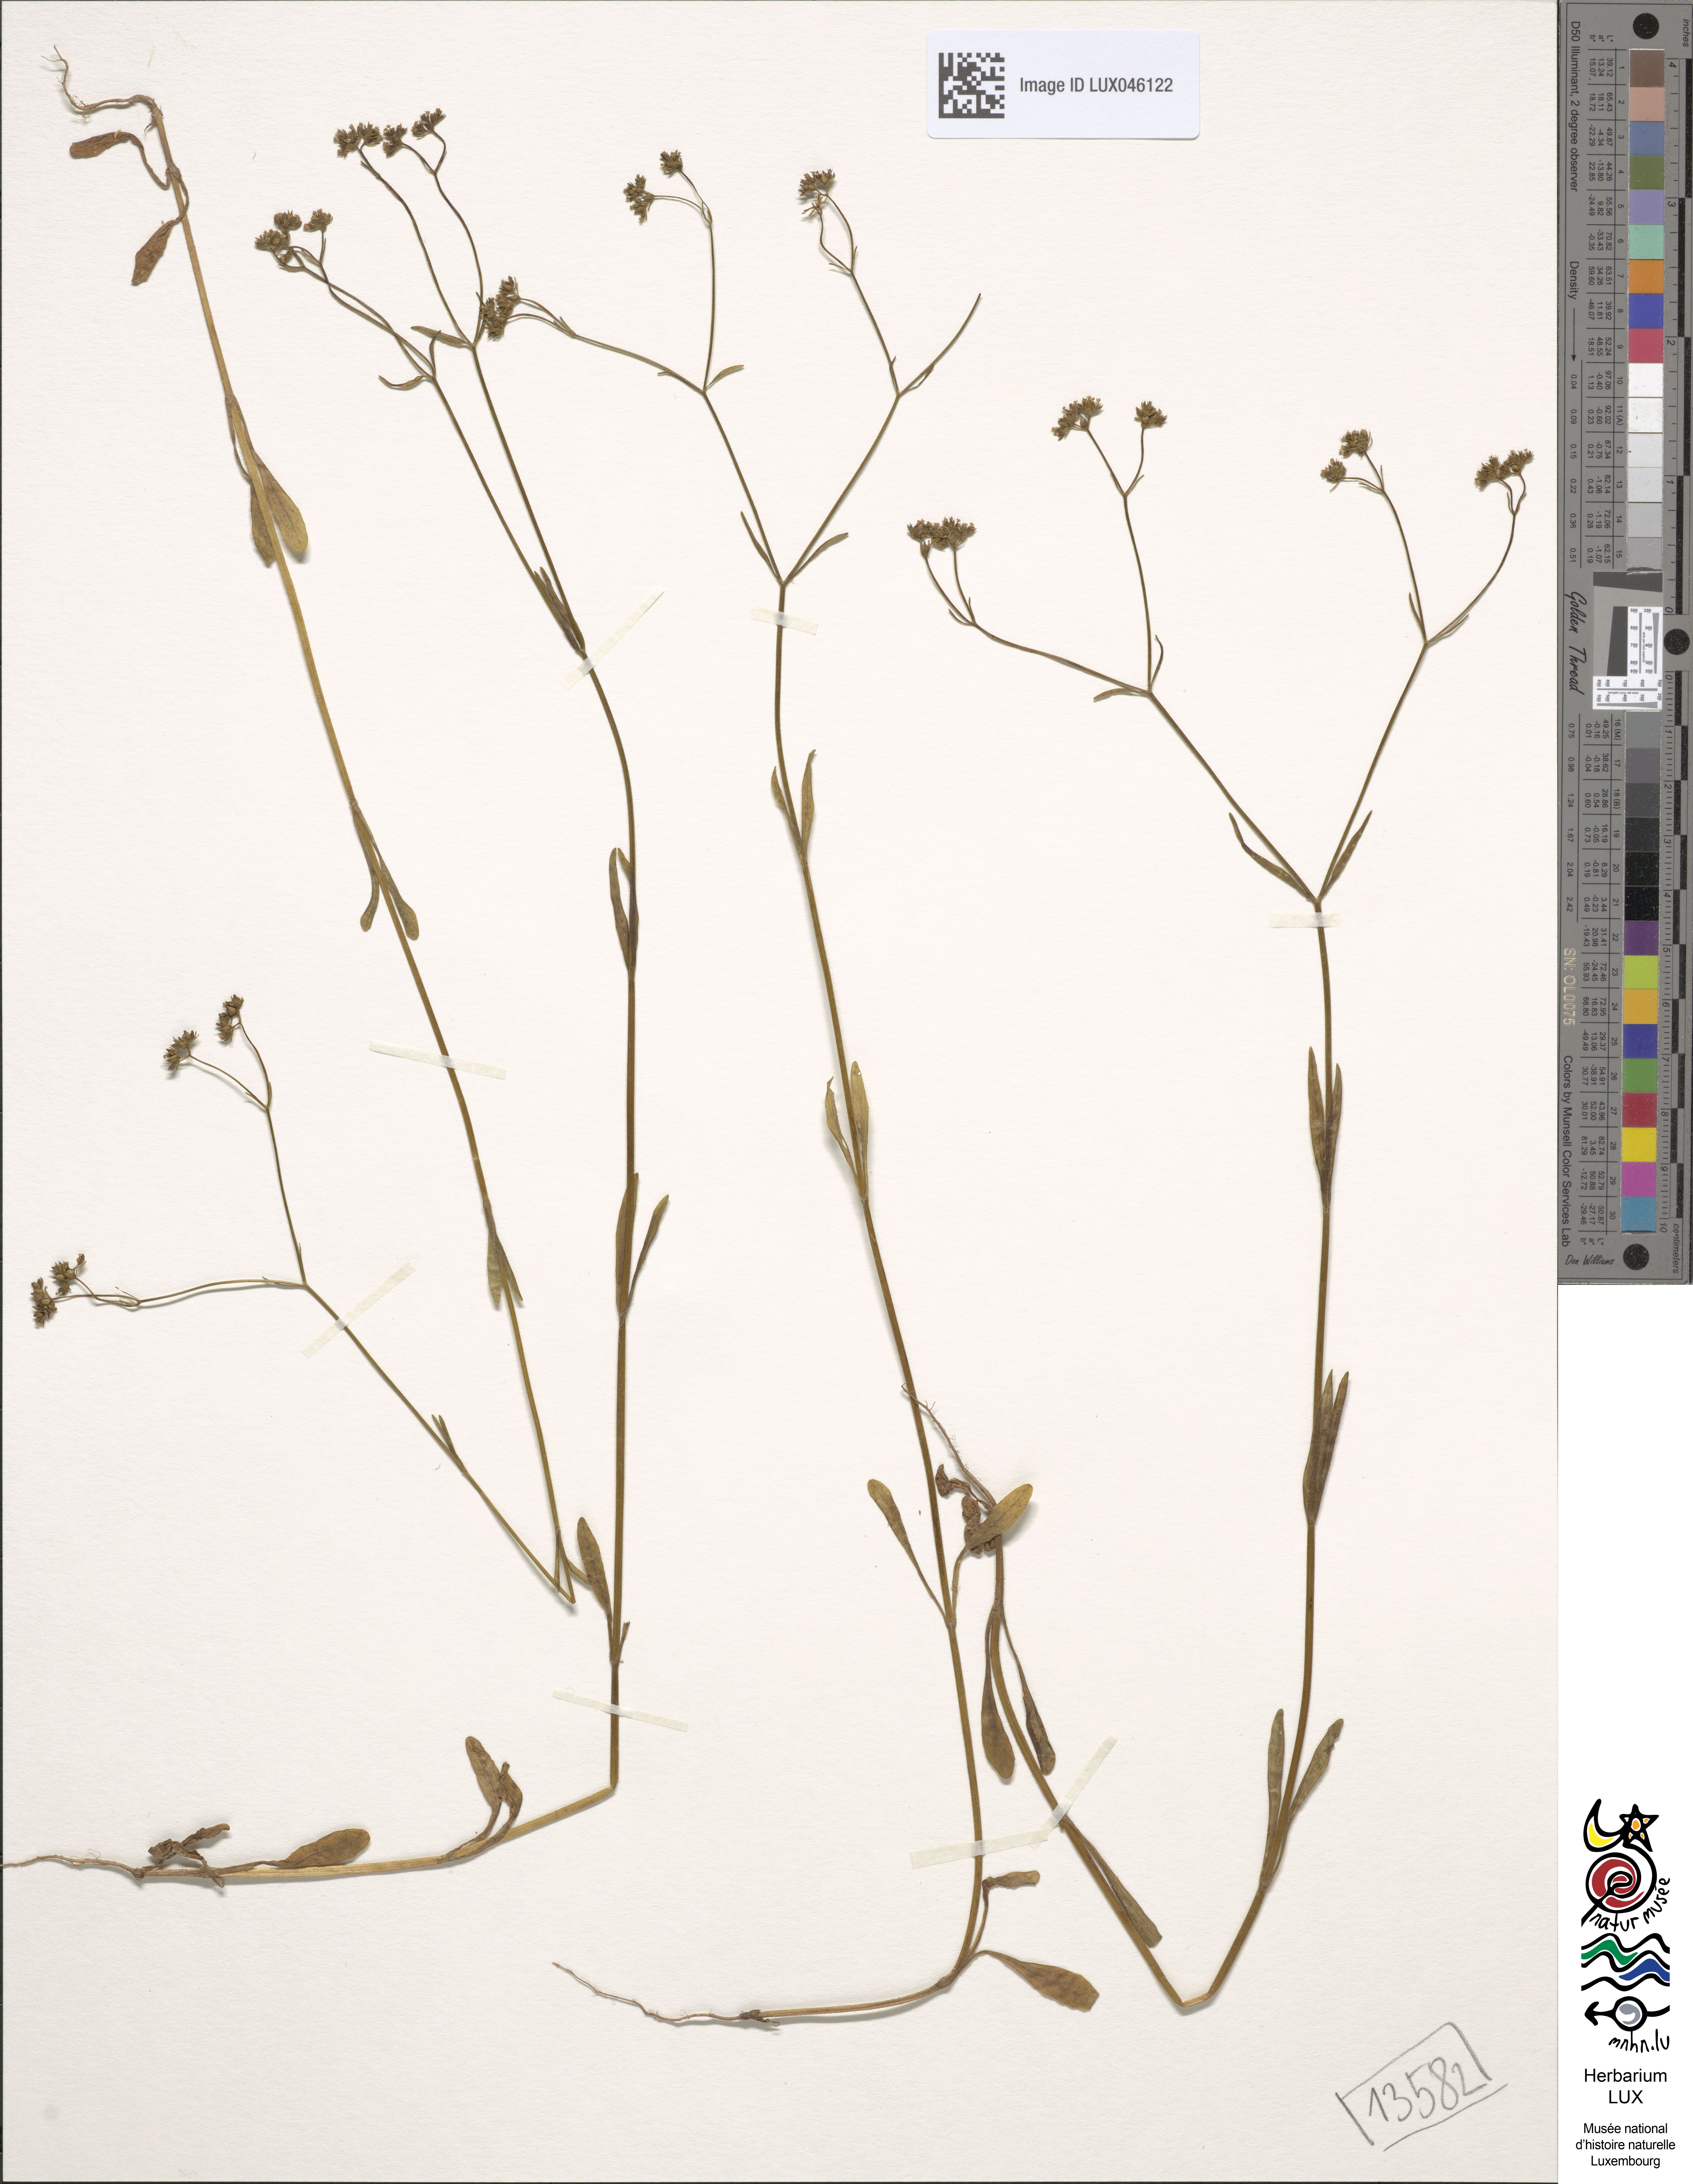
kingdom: Plantae
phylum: Tracheophyta
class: Magnoliopsida
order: Dipsacales
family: Caprifoliaceae
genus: Valerianella
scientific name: Valerianella rimosa
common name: Broad-fruited cornsalad
